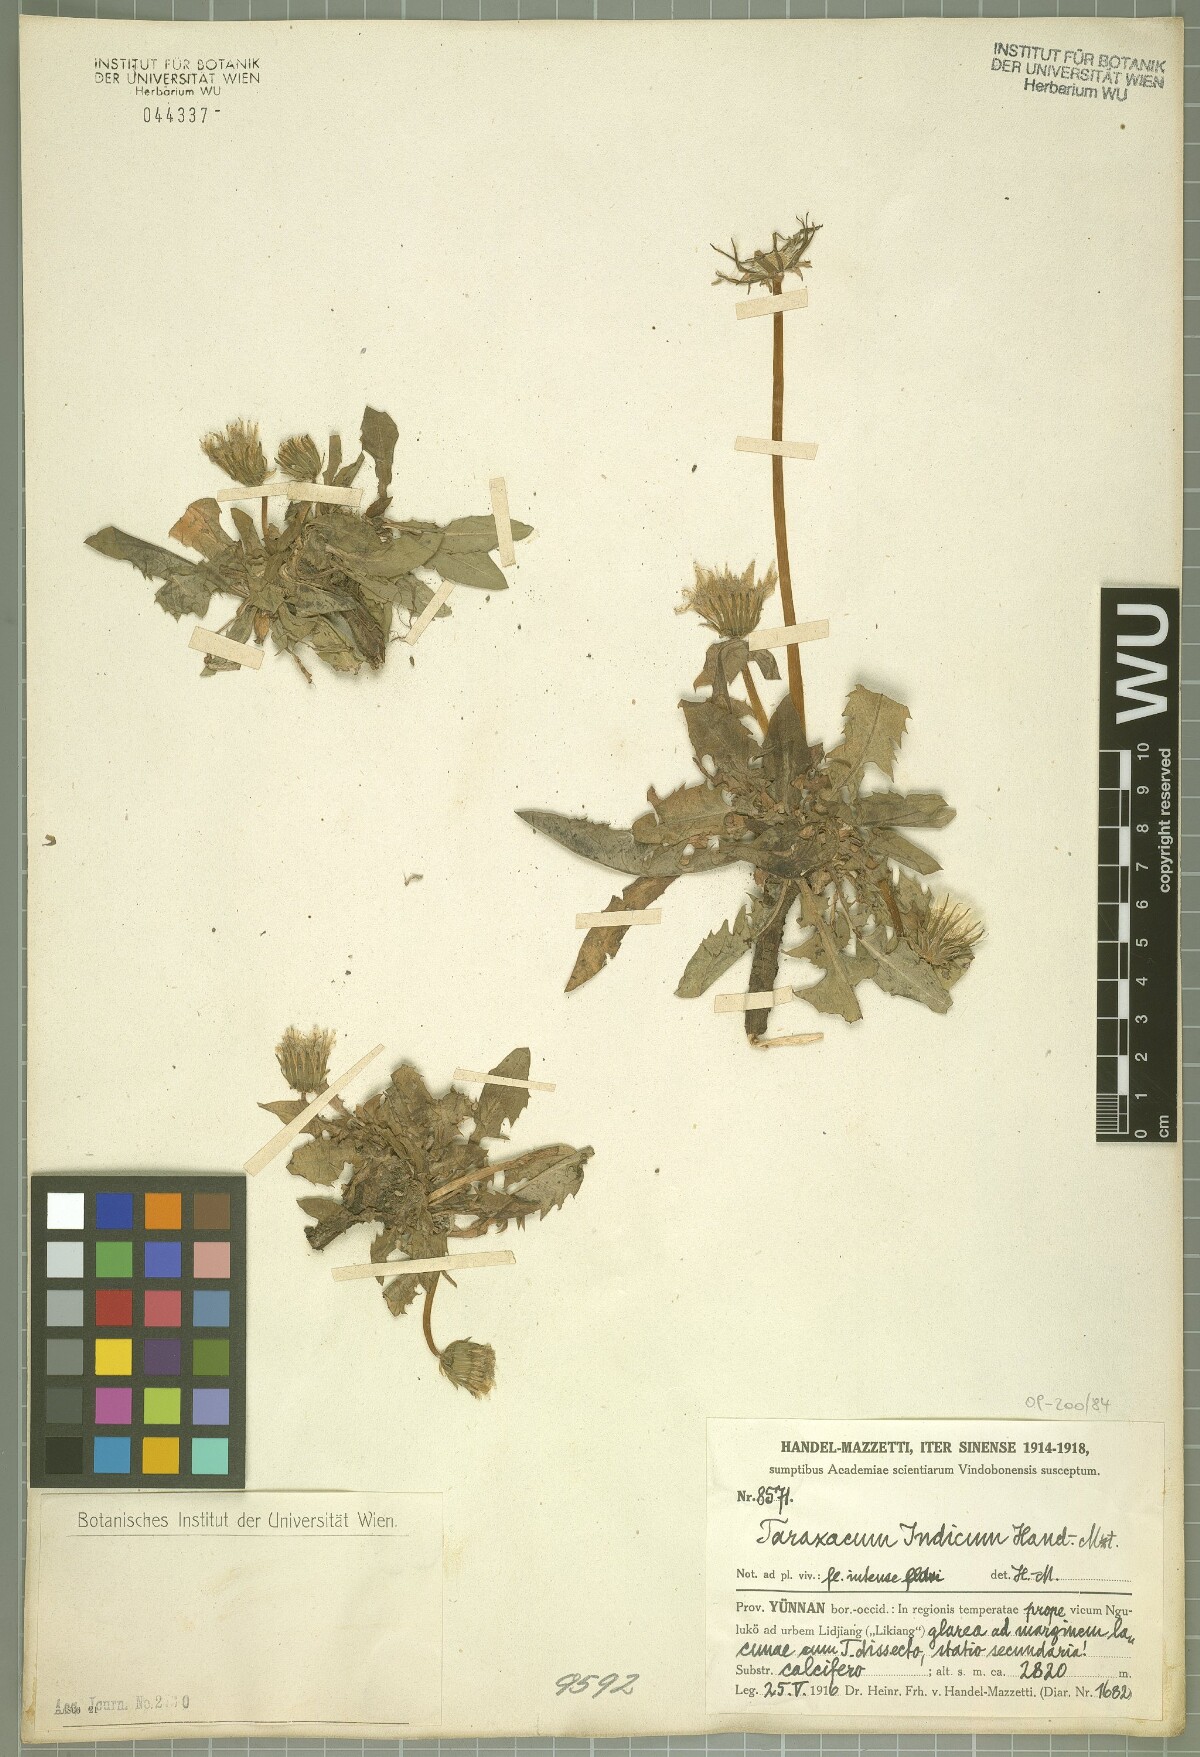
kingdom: Plantae
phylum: Tracheophyta
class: Magnoliopsida
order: Asterales
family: Asteraceae
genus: Taraxacum
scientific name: Taraxacum indicum
